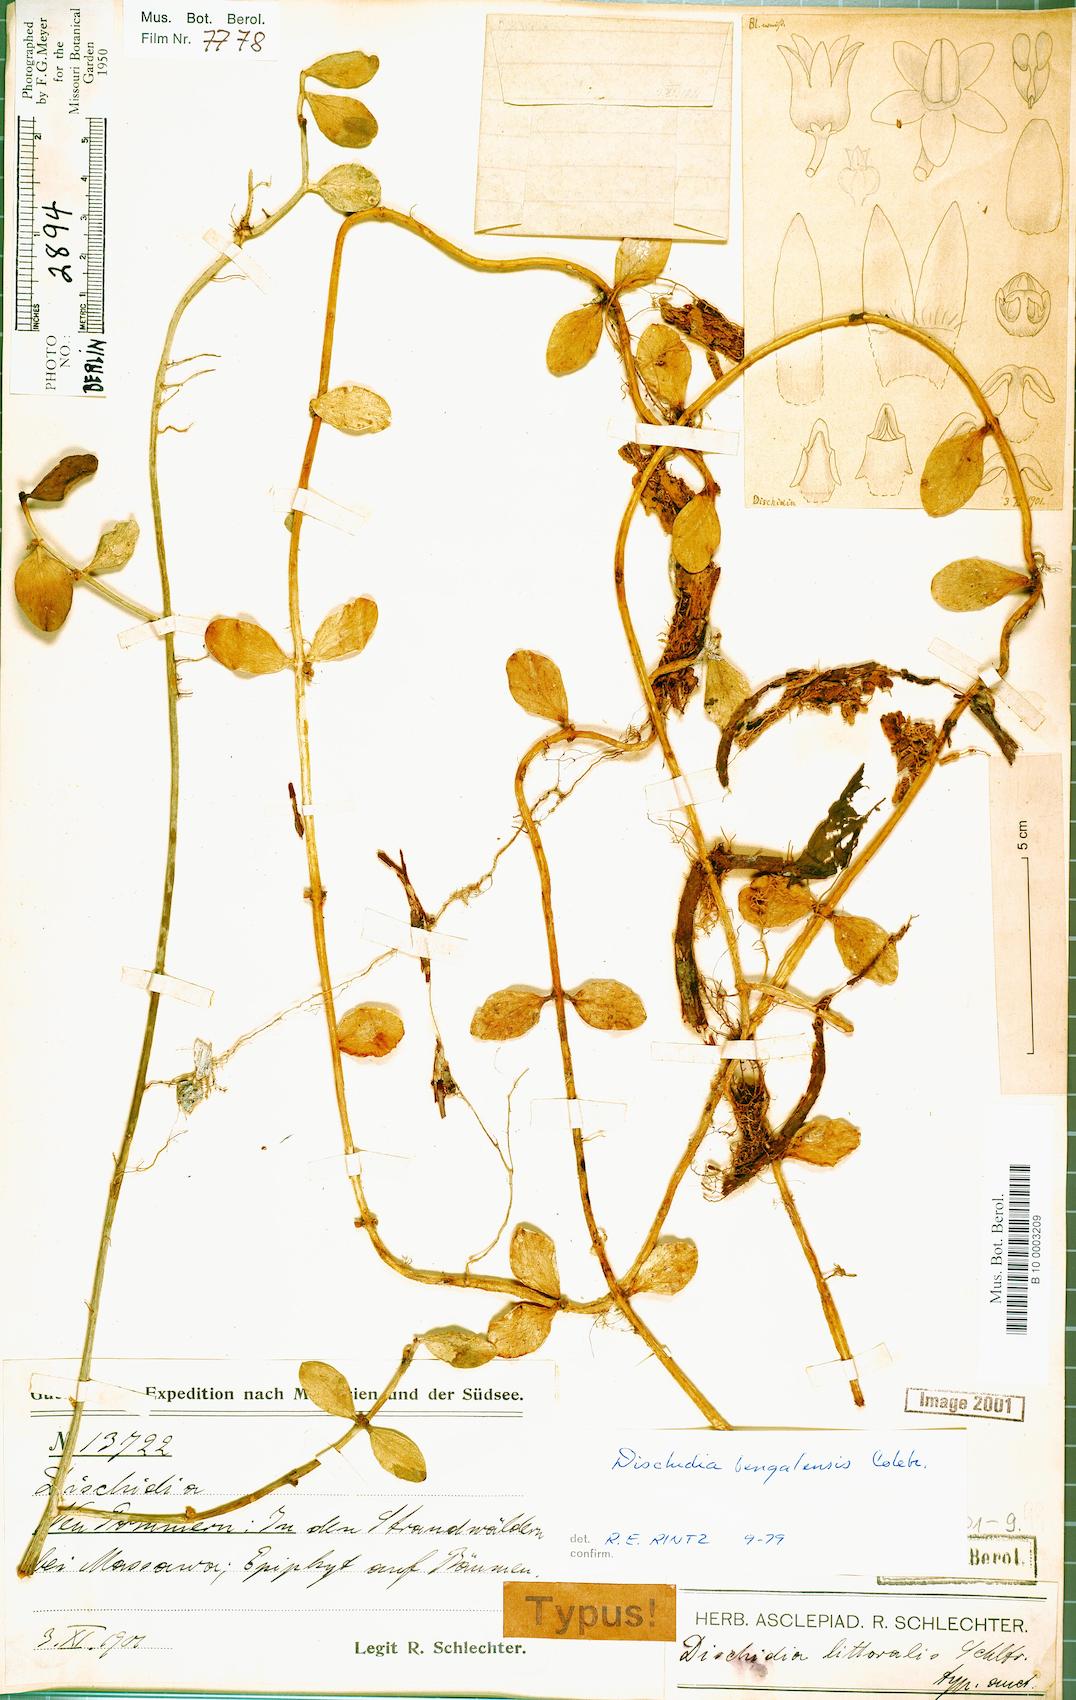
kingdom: Plantae
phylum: Tracheophyta
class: Magnoliopsida
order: Gentianales
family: Apocynaceae
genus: Dischidia
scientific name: Dischidia bengalensis
